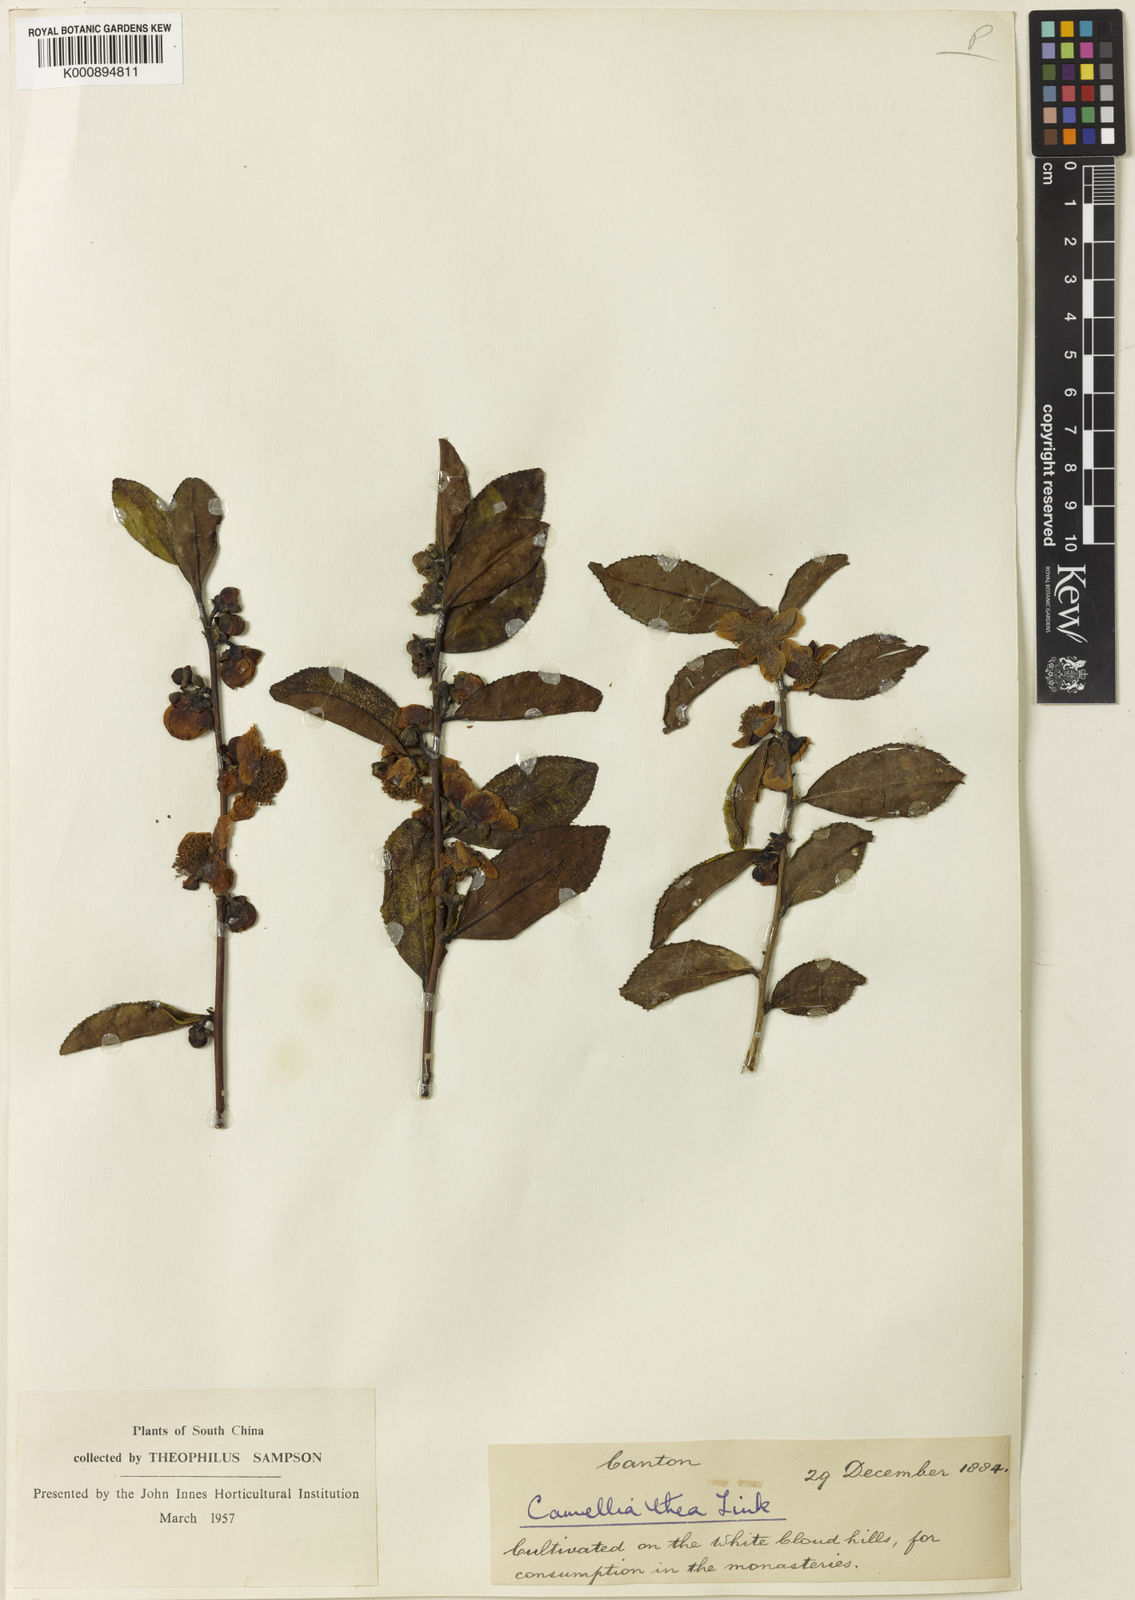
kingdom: Plantae
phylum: Tracheophyta
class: Magnoliopsida
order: Ericales
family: Theaceae
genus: Camellia
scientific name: Camellia sinensis
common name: Tea
